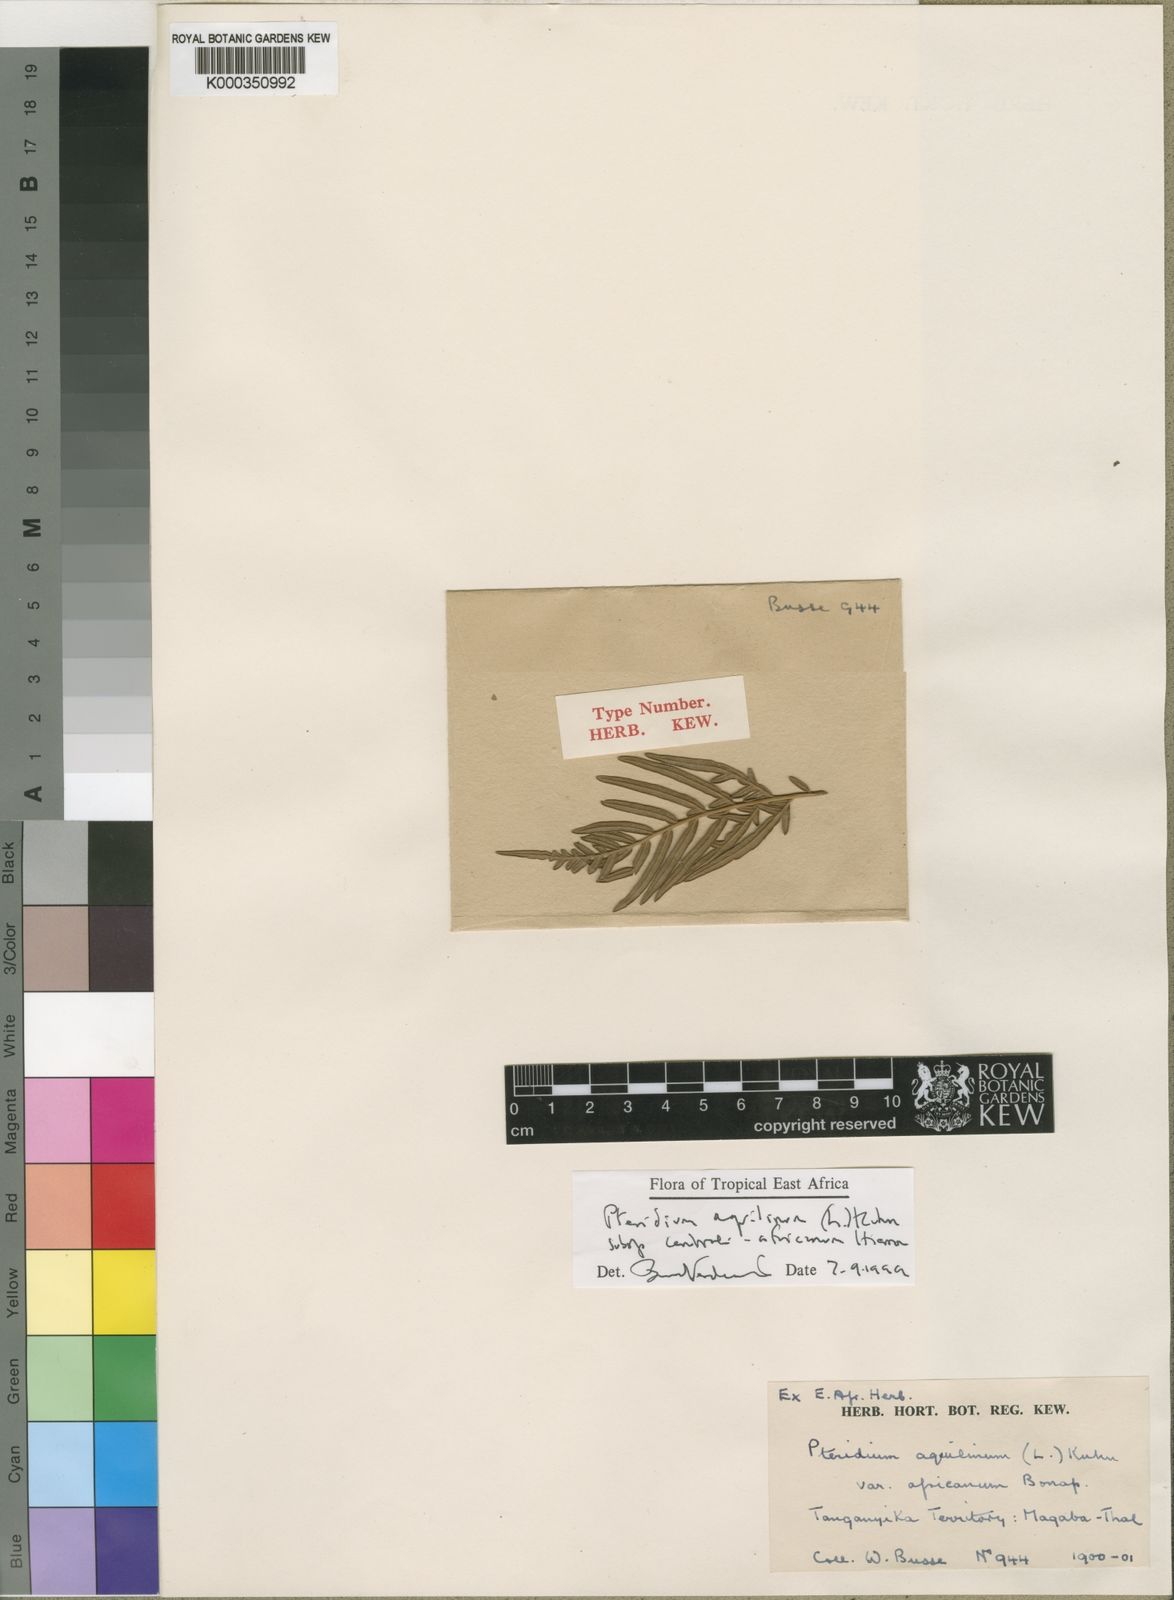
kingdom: Plantae
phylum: Tracheophyta
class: Polypodiopsida
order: Polypodiales
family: Dennstaedtiaceae
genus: Pteridium
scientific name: Pteridium aquilinum
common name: Bracken
